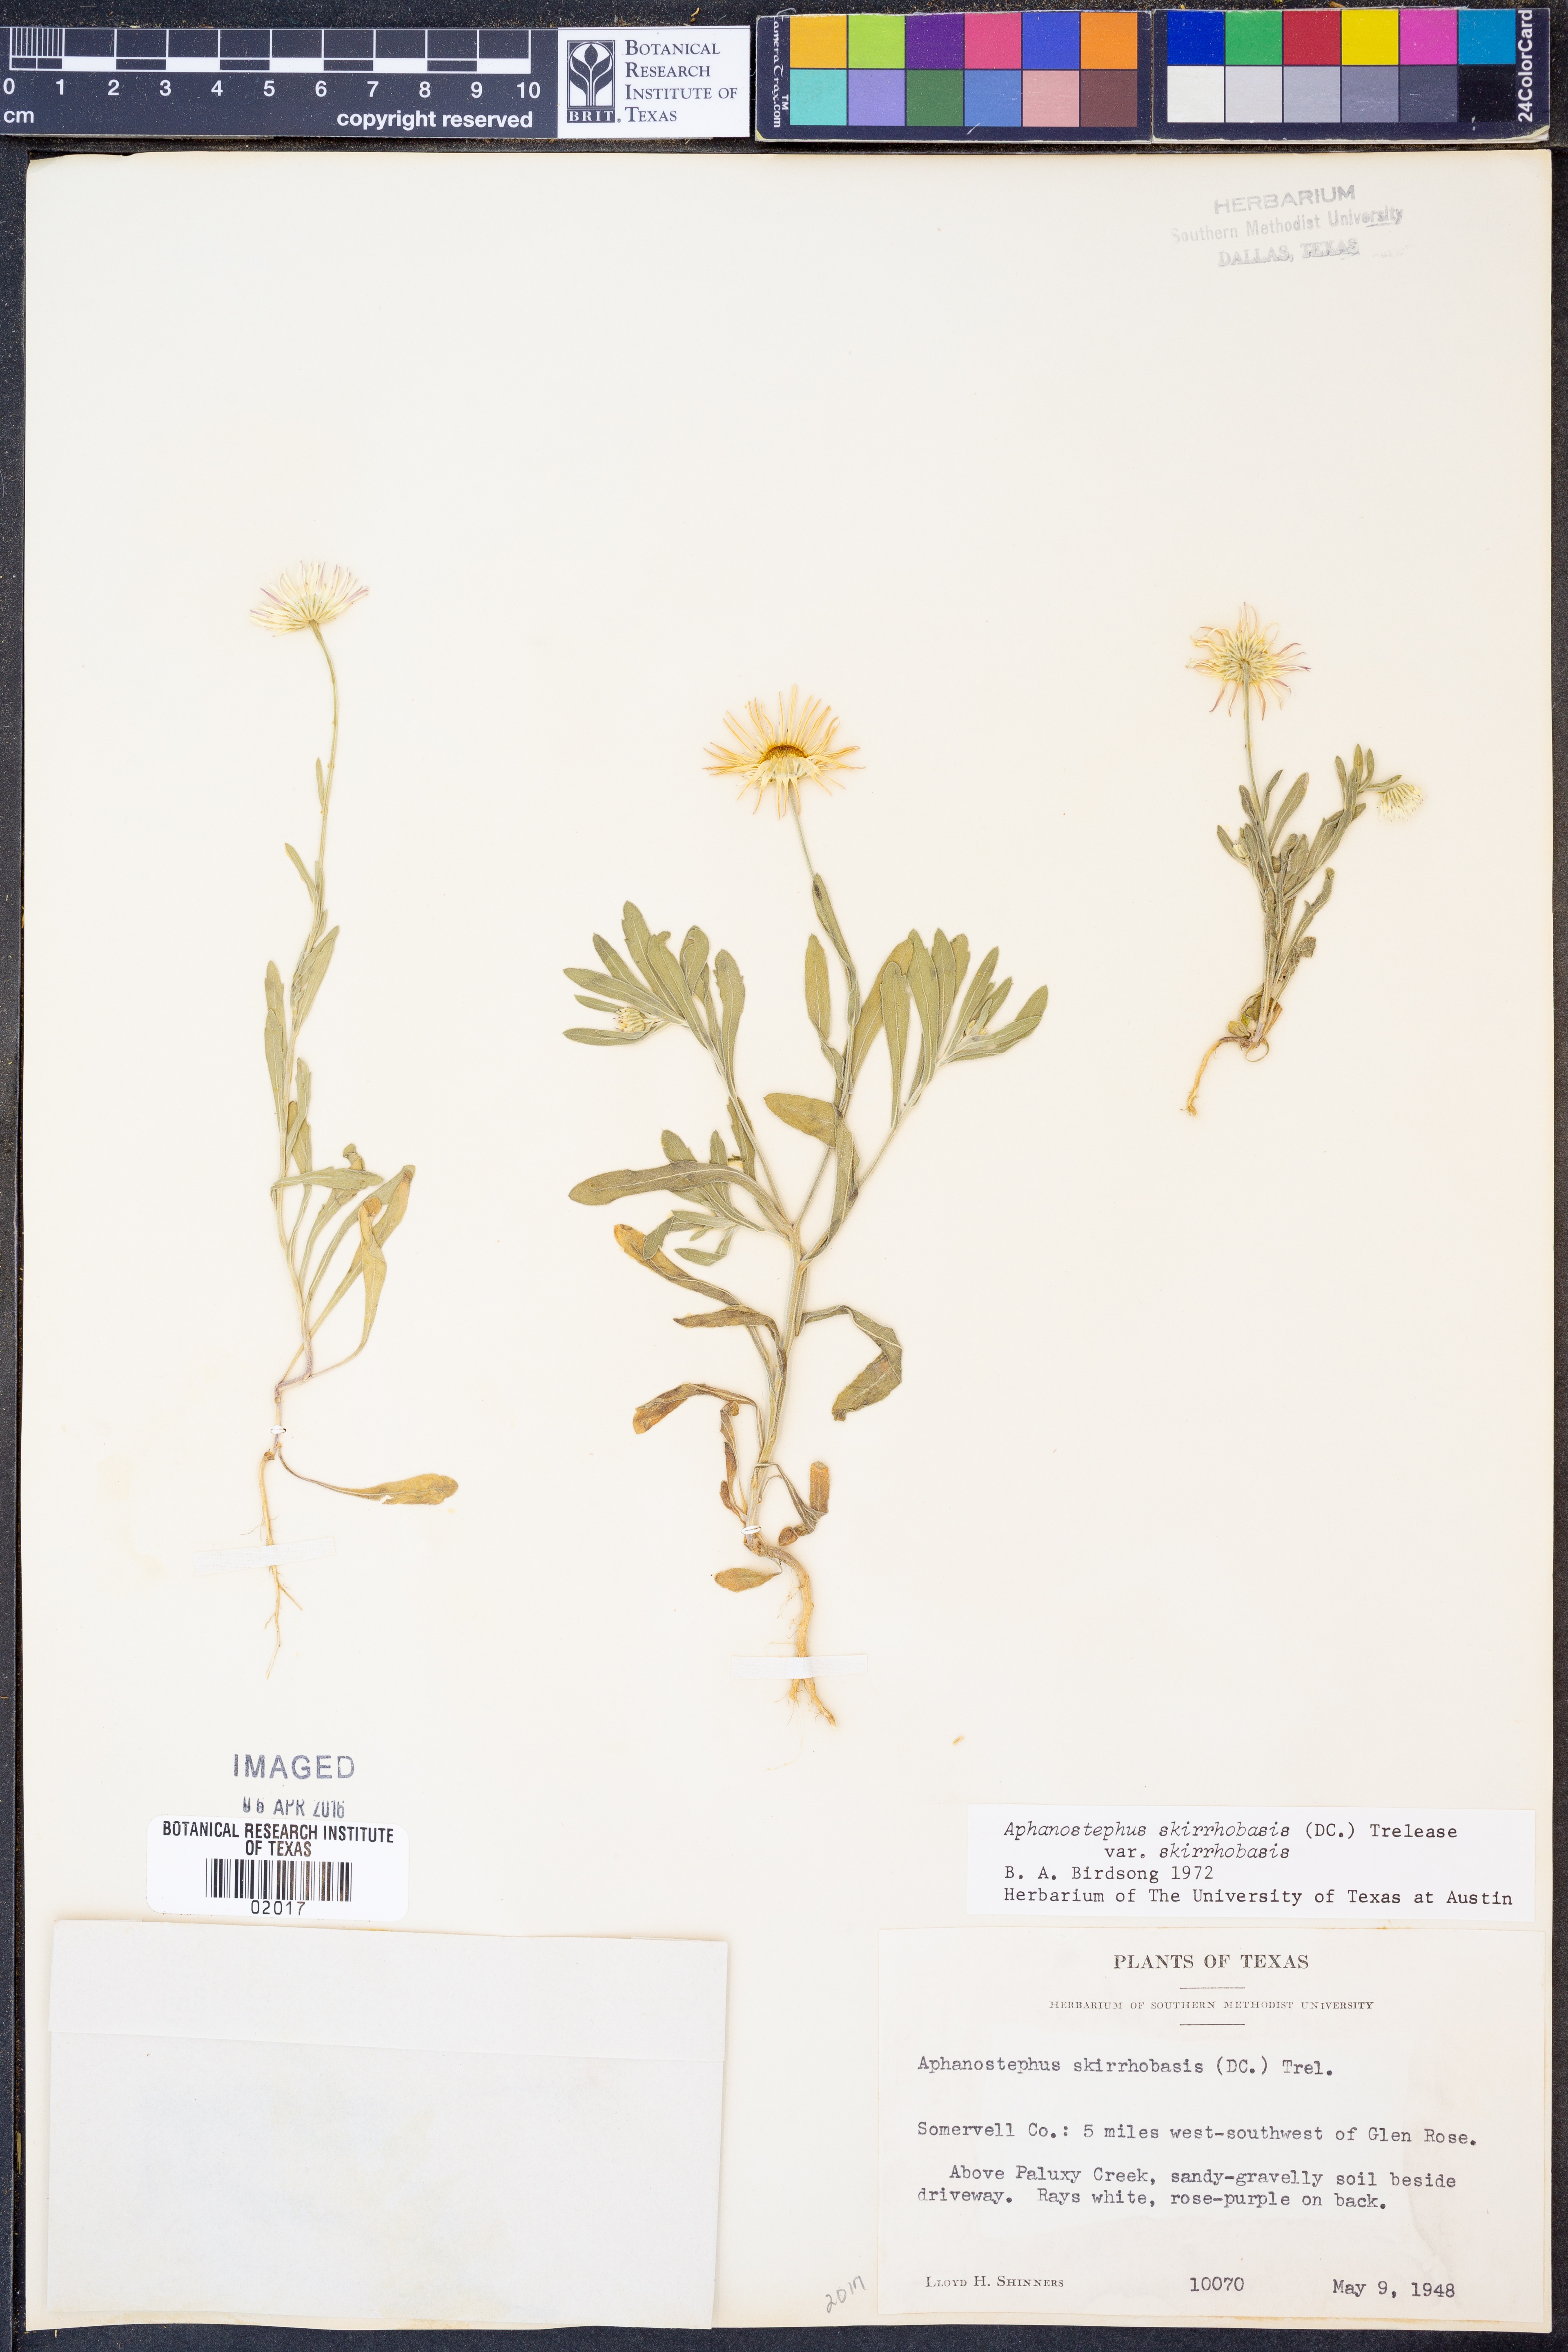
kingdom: Plantae
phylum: Tracheophyta
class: Magnoliopsida
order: Asterales
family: Asteraceae
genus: Aphanostephus
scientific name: Aphanostephus skirrhobasis
